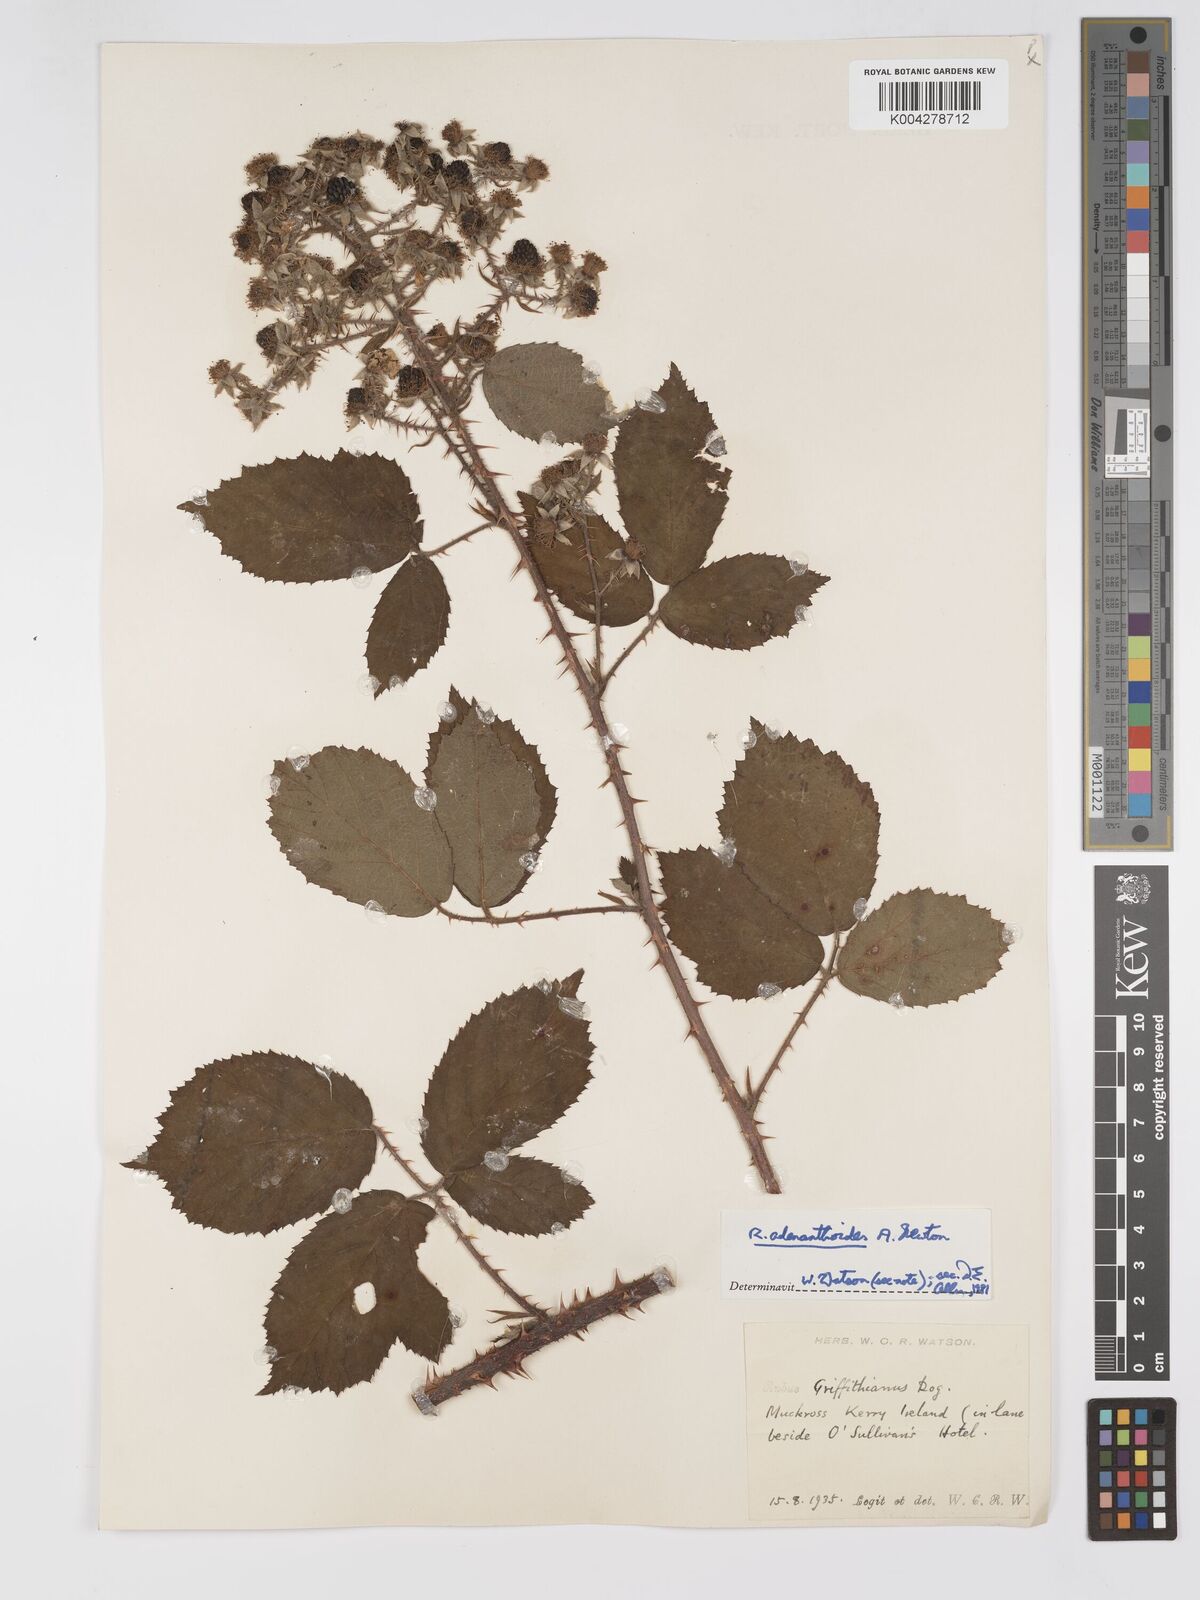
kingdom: Plantae
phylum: Tracheophyta
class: Magnoliopsida
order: Rosales
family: Rosaceae
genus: Rubus
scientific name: Rubus swinhoei
